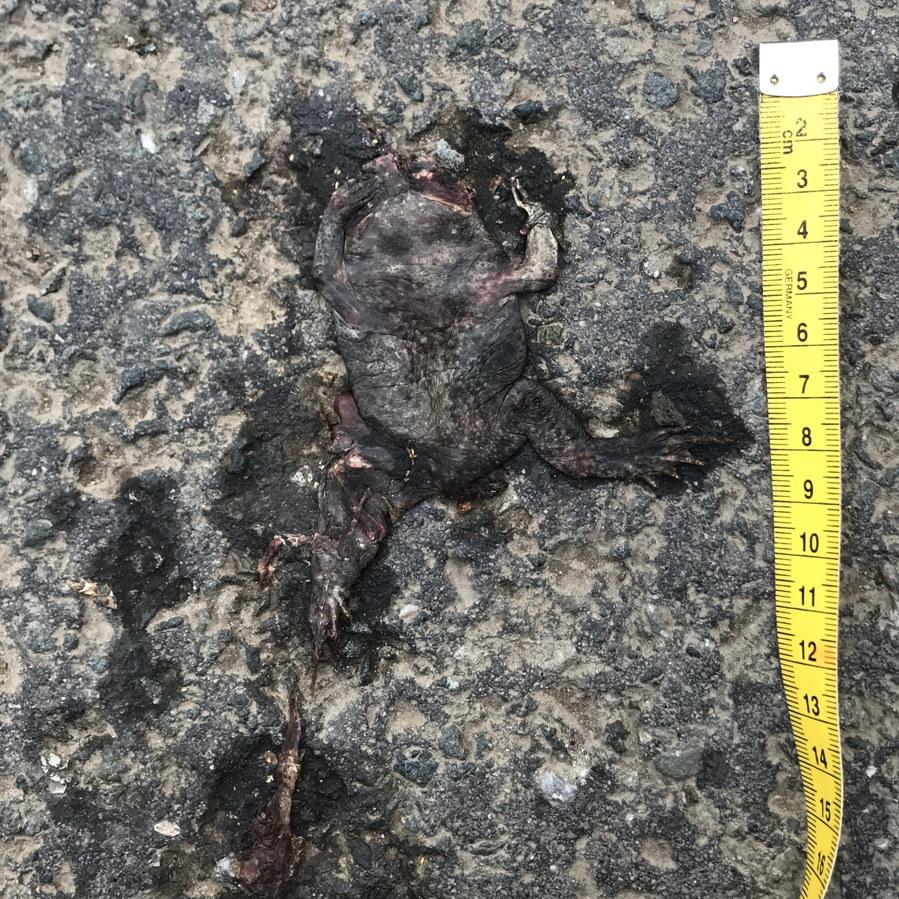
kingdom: Animalia
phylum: Chordata
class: Amphibia
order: Anura
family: Bufonidae
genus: Bufo
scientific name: Bufo bufo
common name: Common toad
